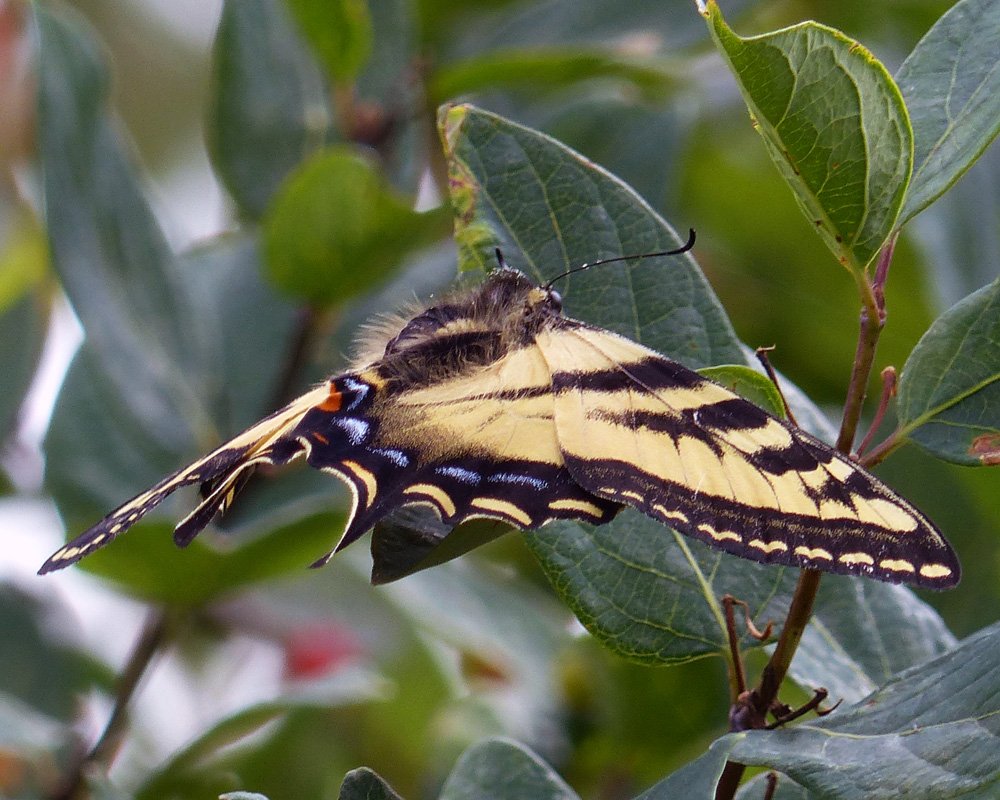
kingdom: Animalia
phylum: Arthropoda
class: Insecta
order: Lepidoptera
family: Papilionidae
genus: Pterourus
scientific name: Pterourus rutulus
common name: Western Tiger Swallowtail
